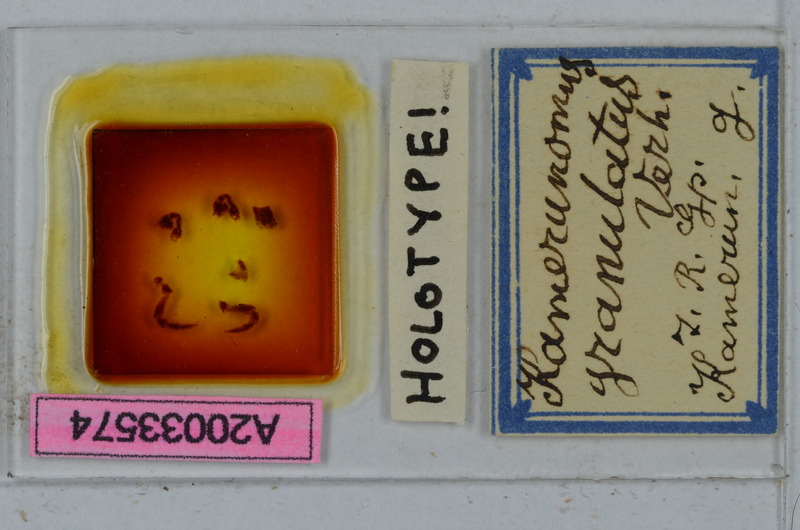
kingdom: Animalia
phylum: Arthropoda
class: Diplopoda
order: Polydesmida
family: Oxydesmidae
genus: Kamerunomus
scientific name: Kamerunomus granulatus
